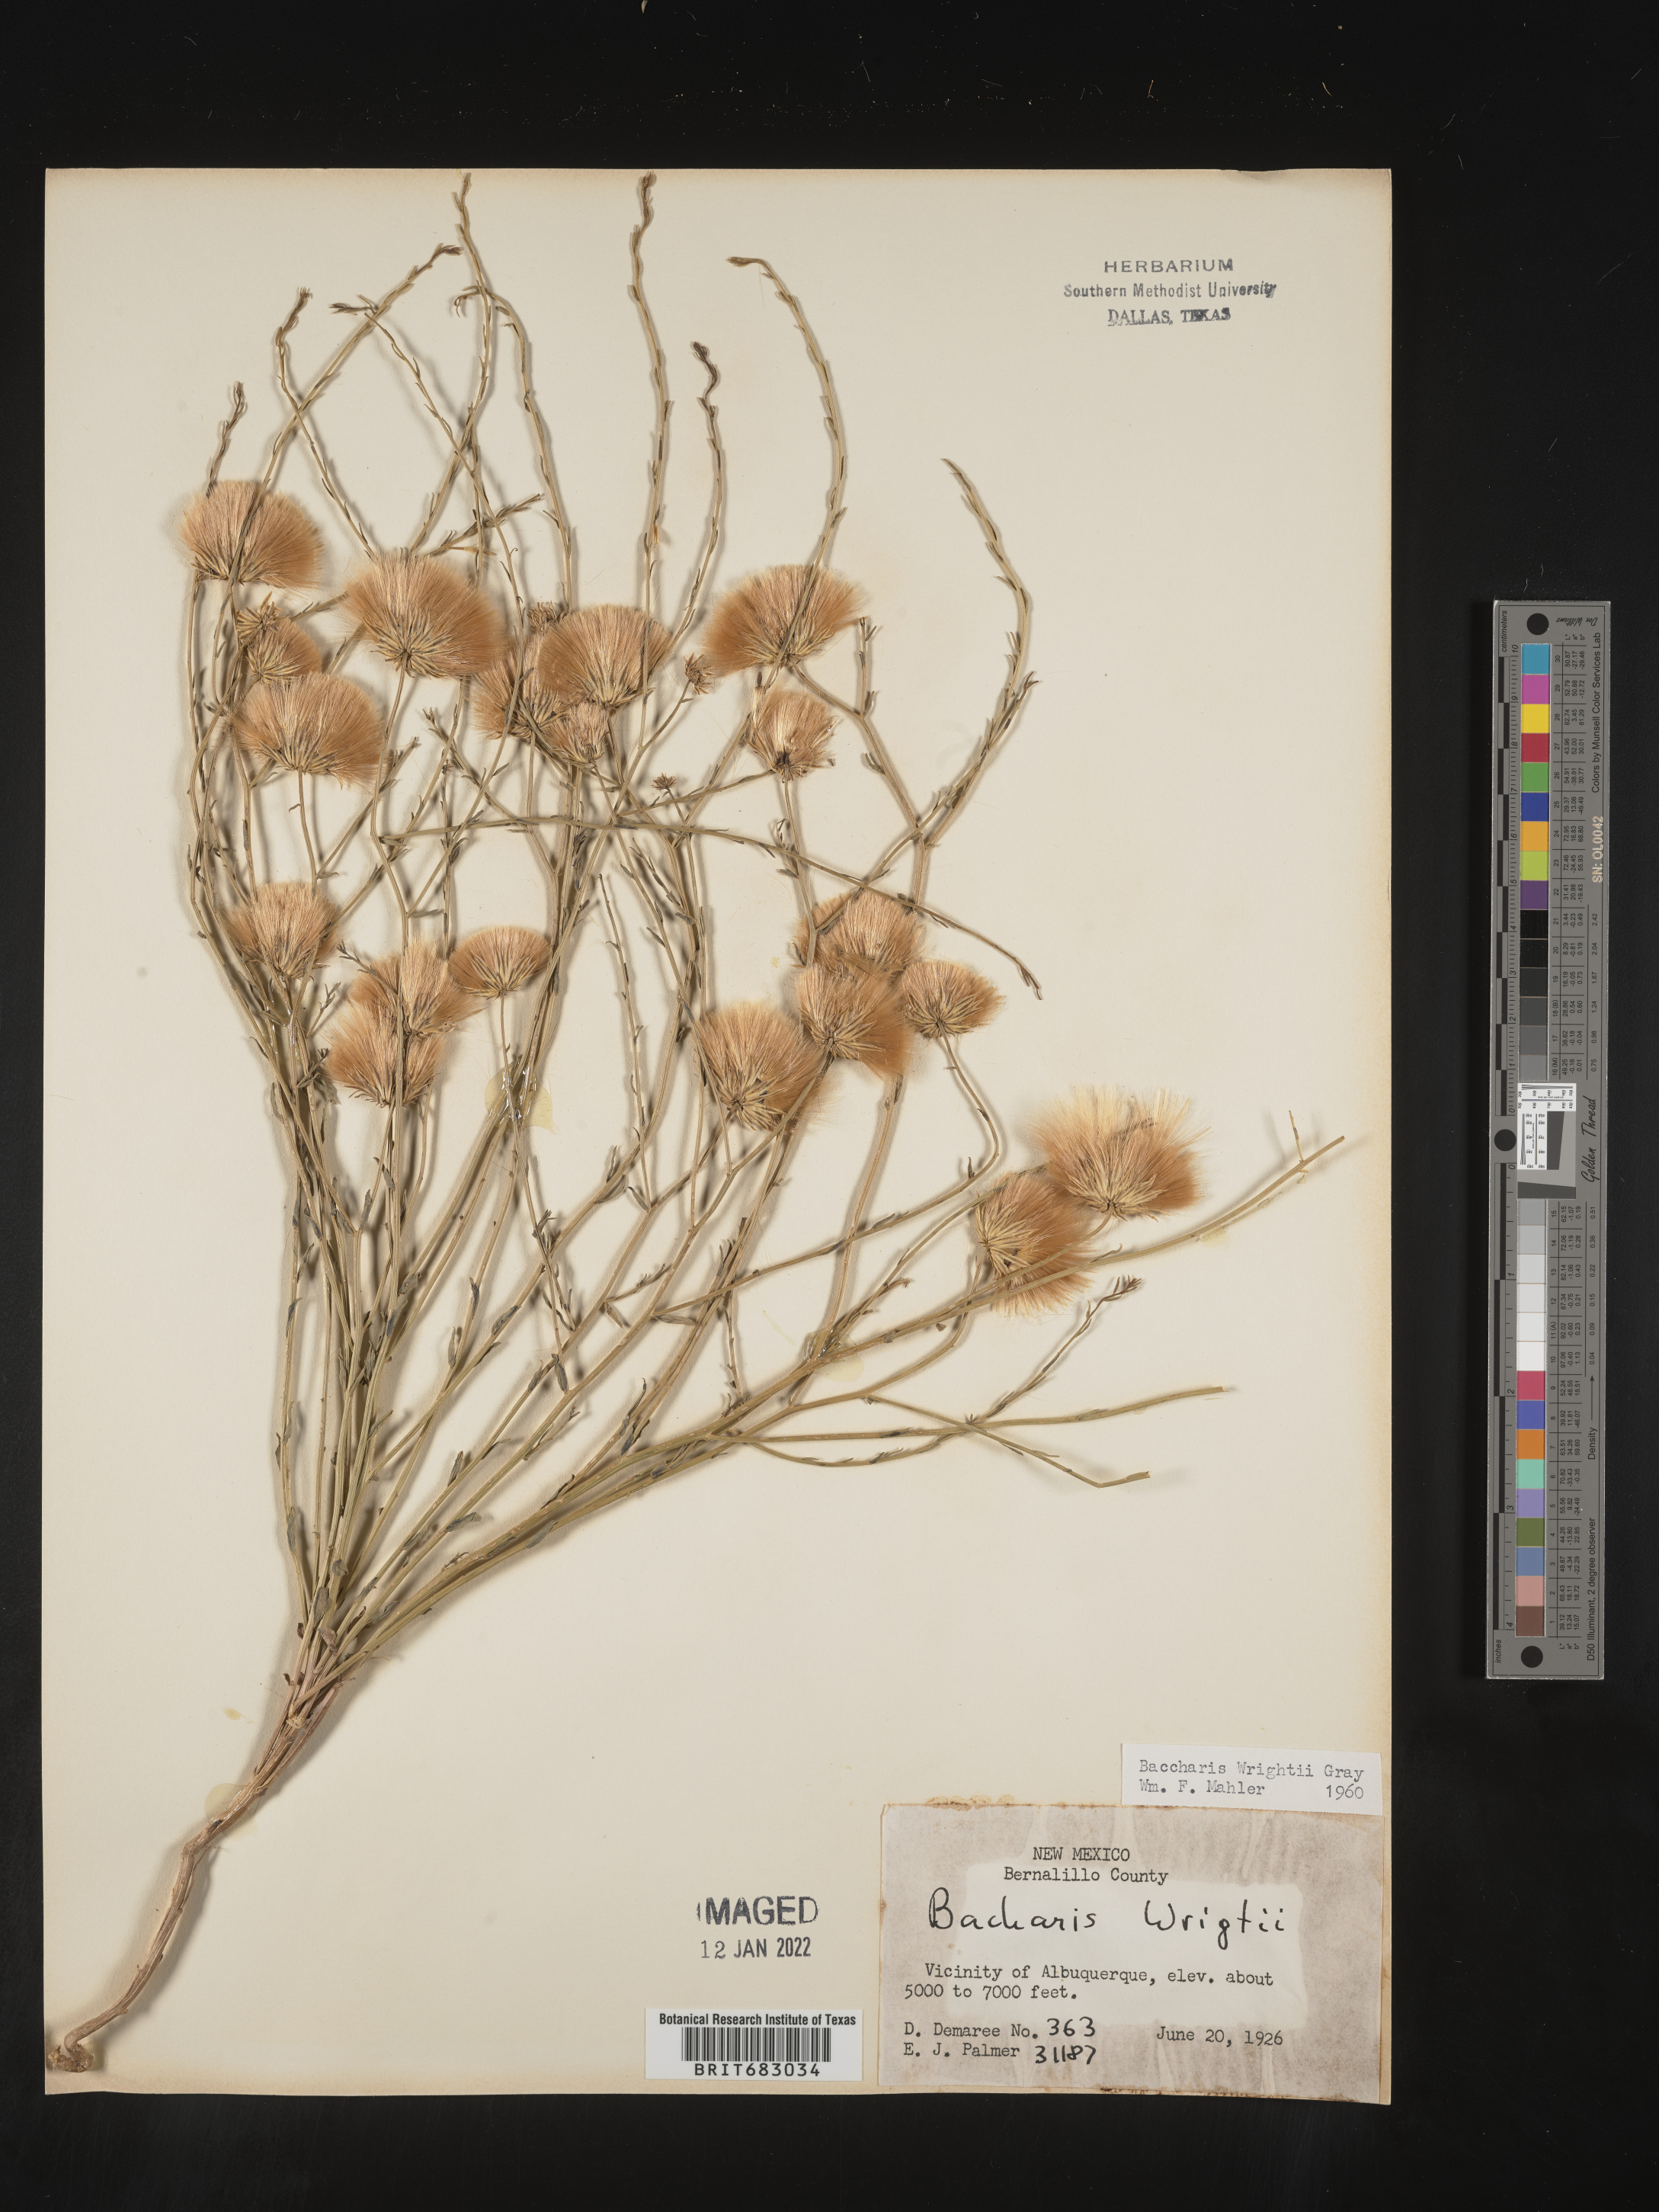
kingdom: Plantae
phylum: Tracheophyta
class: Magnoliopsida
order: Asterales
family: Asteraceae
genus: Baccharis
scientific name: Baccharis wrightii
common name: Wright's baccharis
